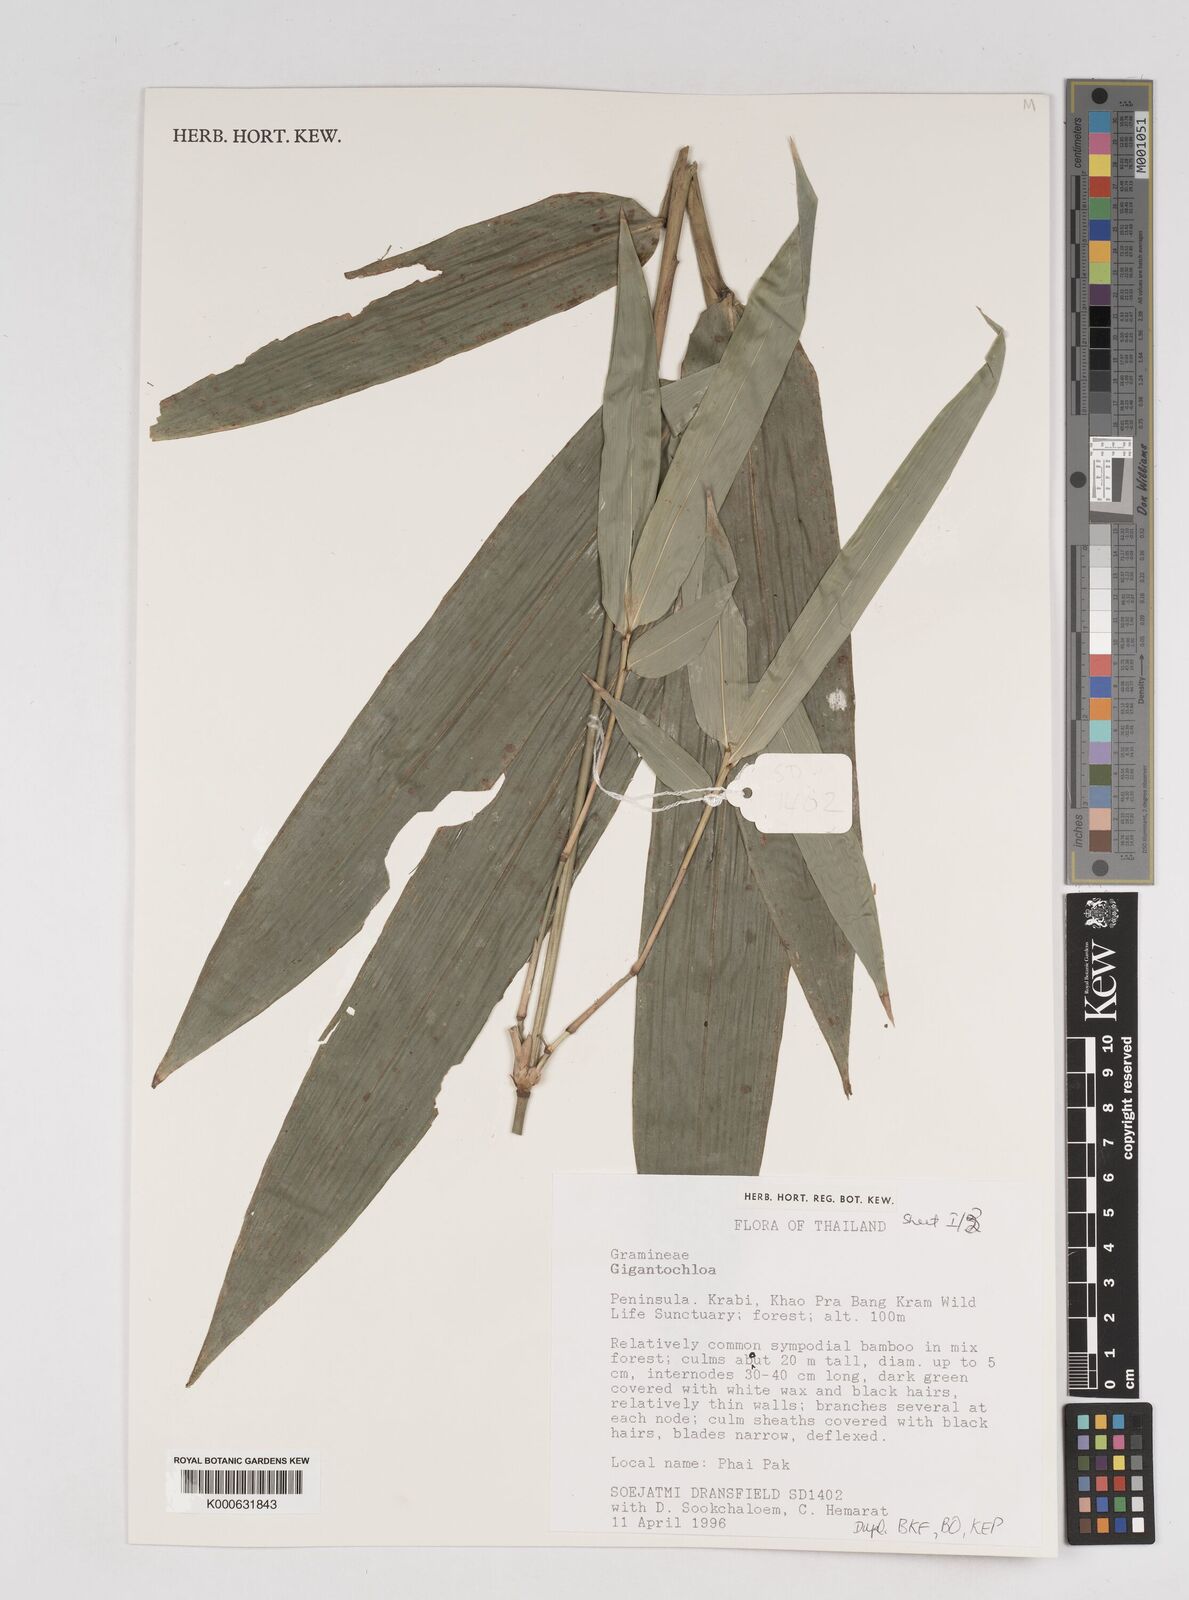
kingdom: Plantae
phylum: Tracheophyta
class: Liliopsida
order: Poales
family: Poaceae
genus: Gigantochloa
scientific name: Gigantochloa
